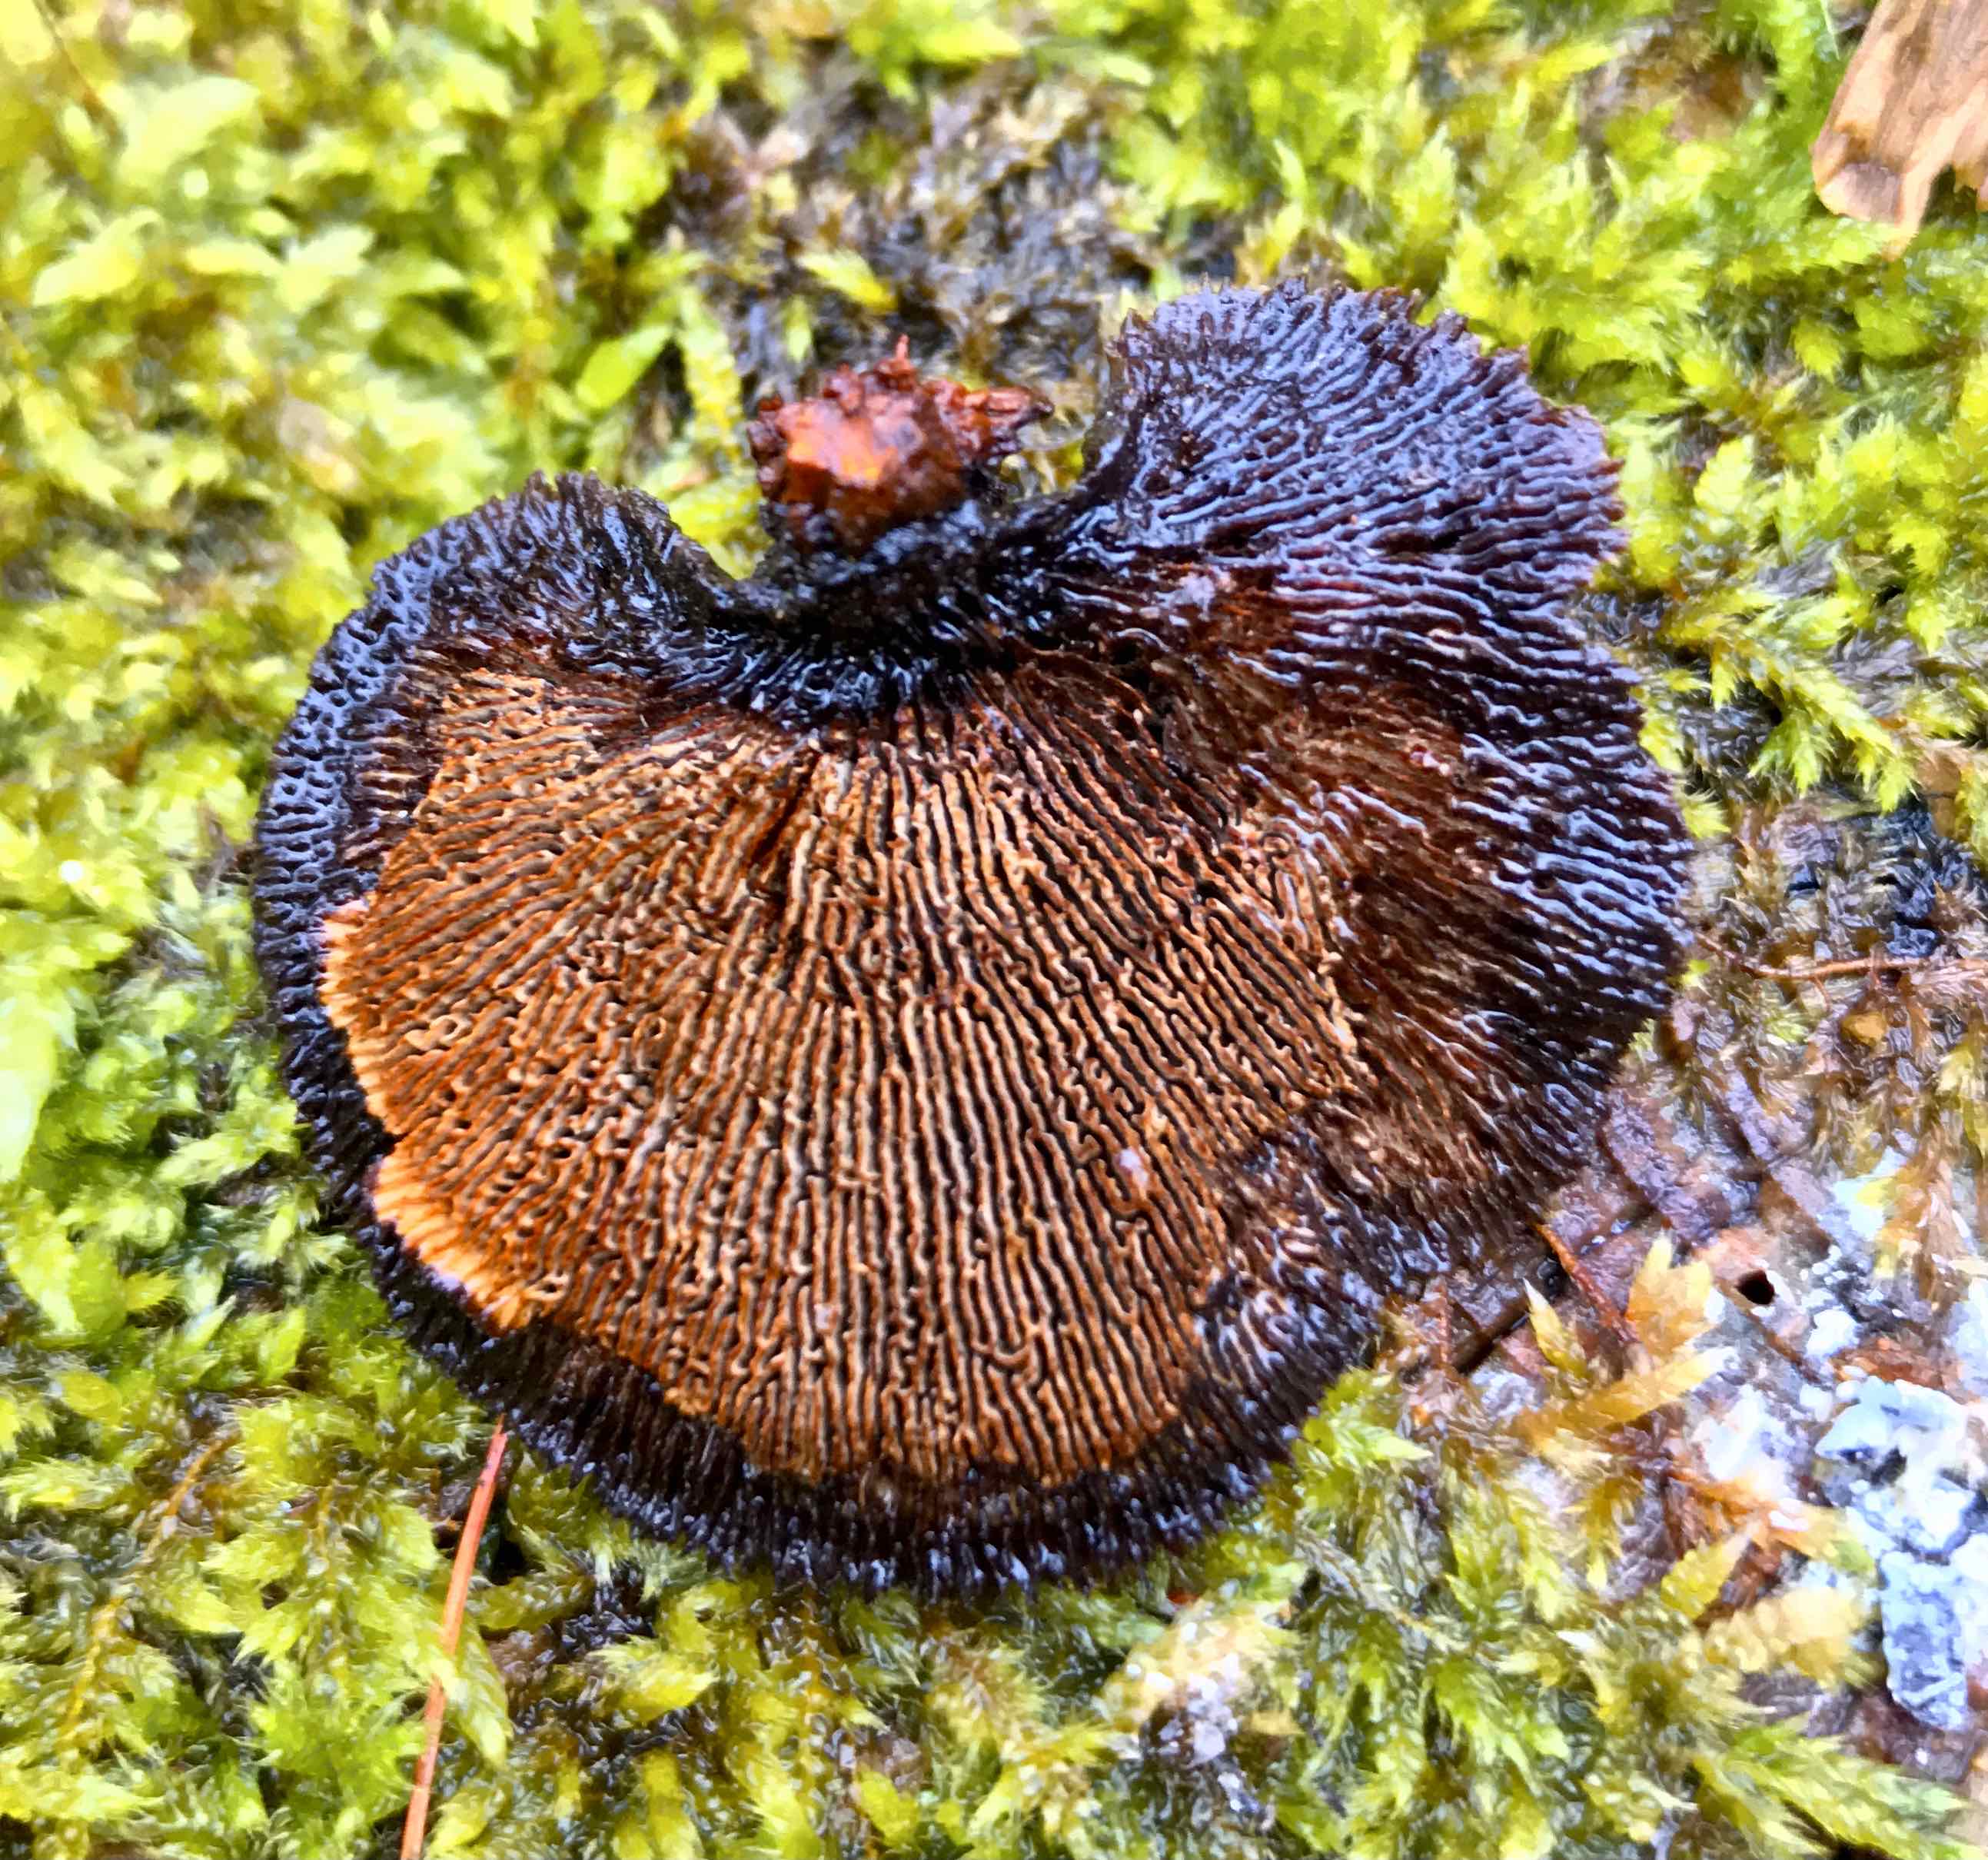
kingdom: Fungi
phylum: Basidiomycota
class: Agaricomycetes
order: Gloeophyllales
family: Gloeophyllaceae
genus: Gloeophyllum
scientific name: Gloeophyllum sepiarium
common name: fyrre-korkhat
